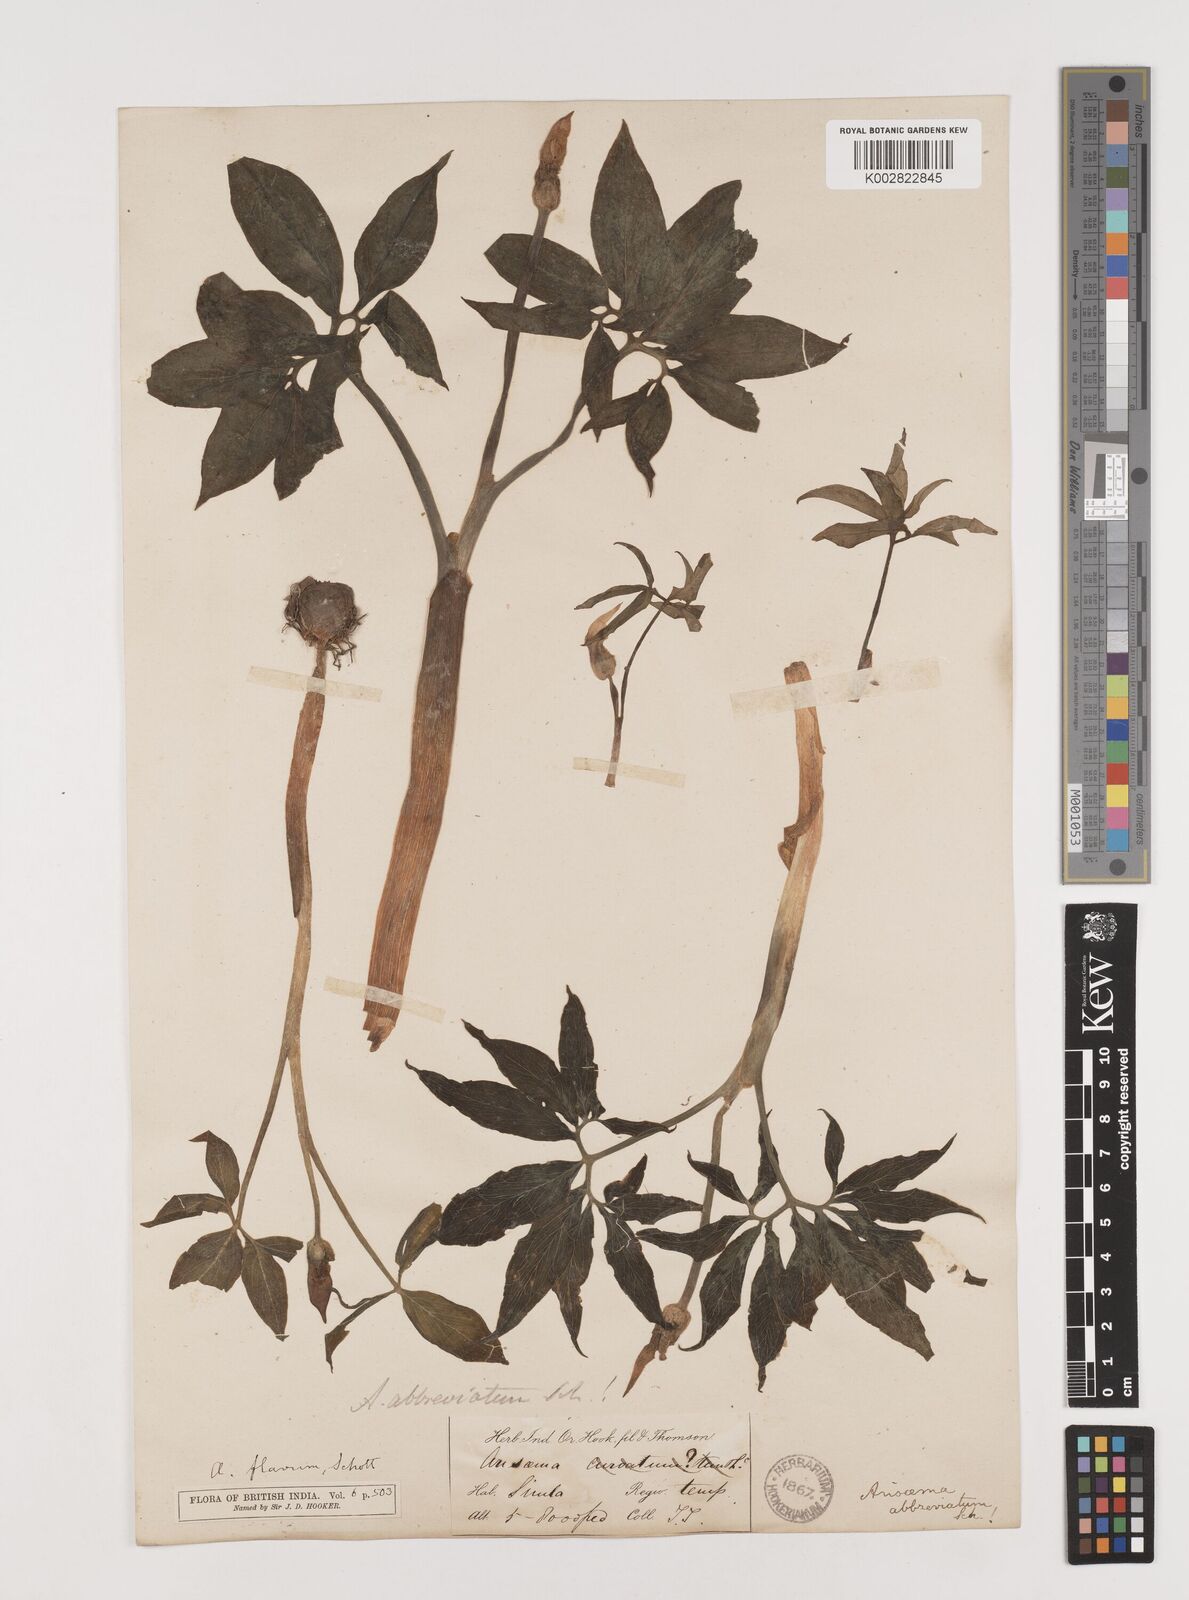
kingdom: Plantae
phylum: Tracheophyta
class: Liliopsida
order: Alismatales
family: Araceae
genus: Arisaema
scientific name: Arisaema flavum
